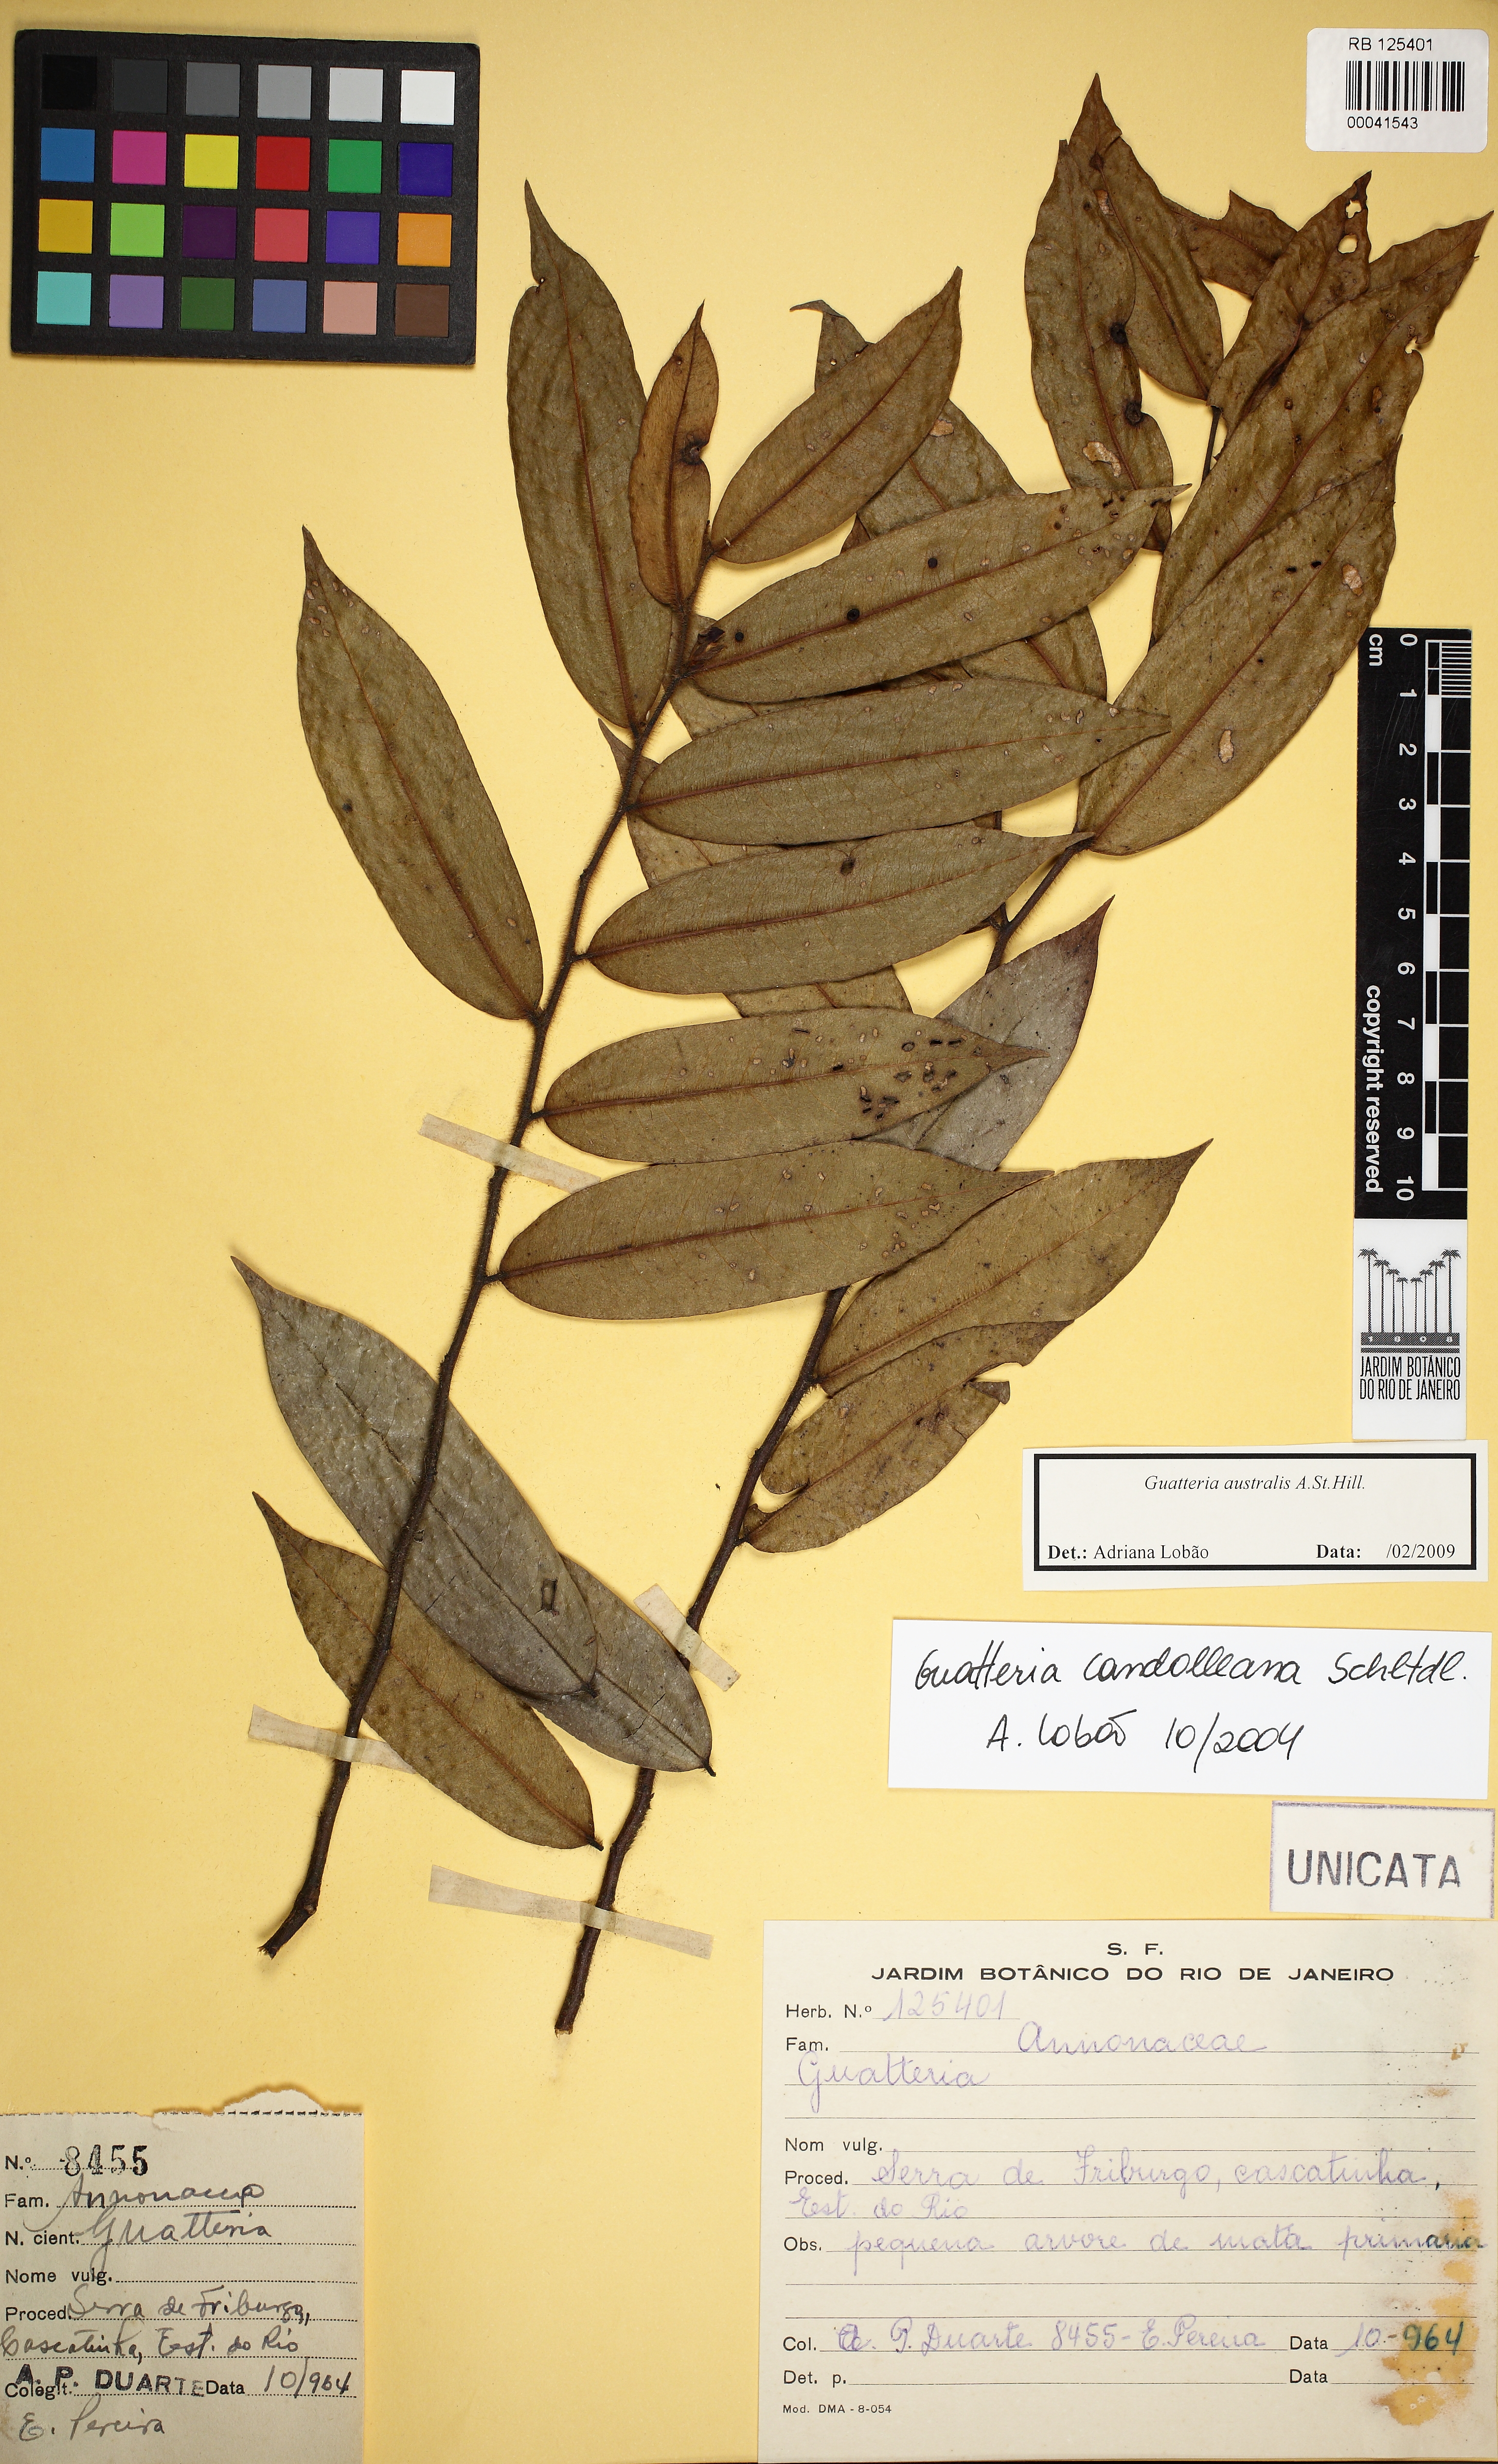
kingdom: Plantae
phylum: Tracheophyta
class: Magnoliopsida
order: Magnoliales
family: Annonaceae
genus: Guatteria
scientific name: Guatteria australis
